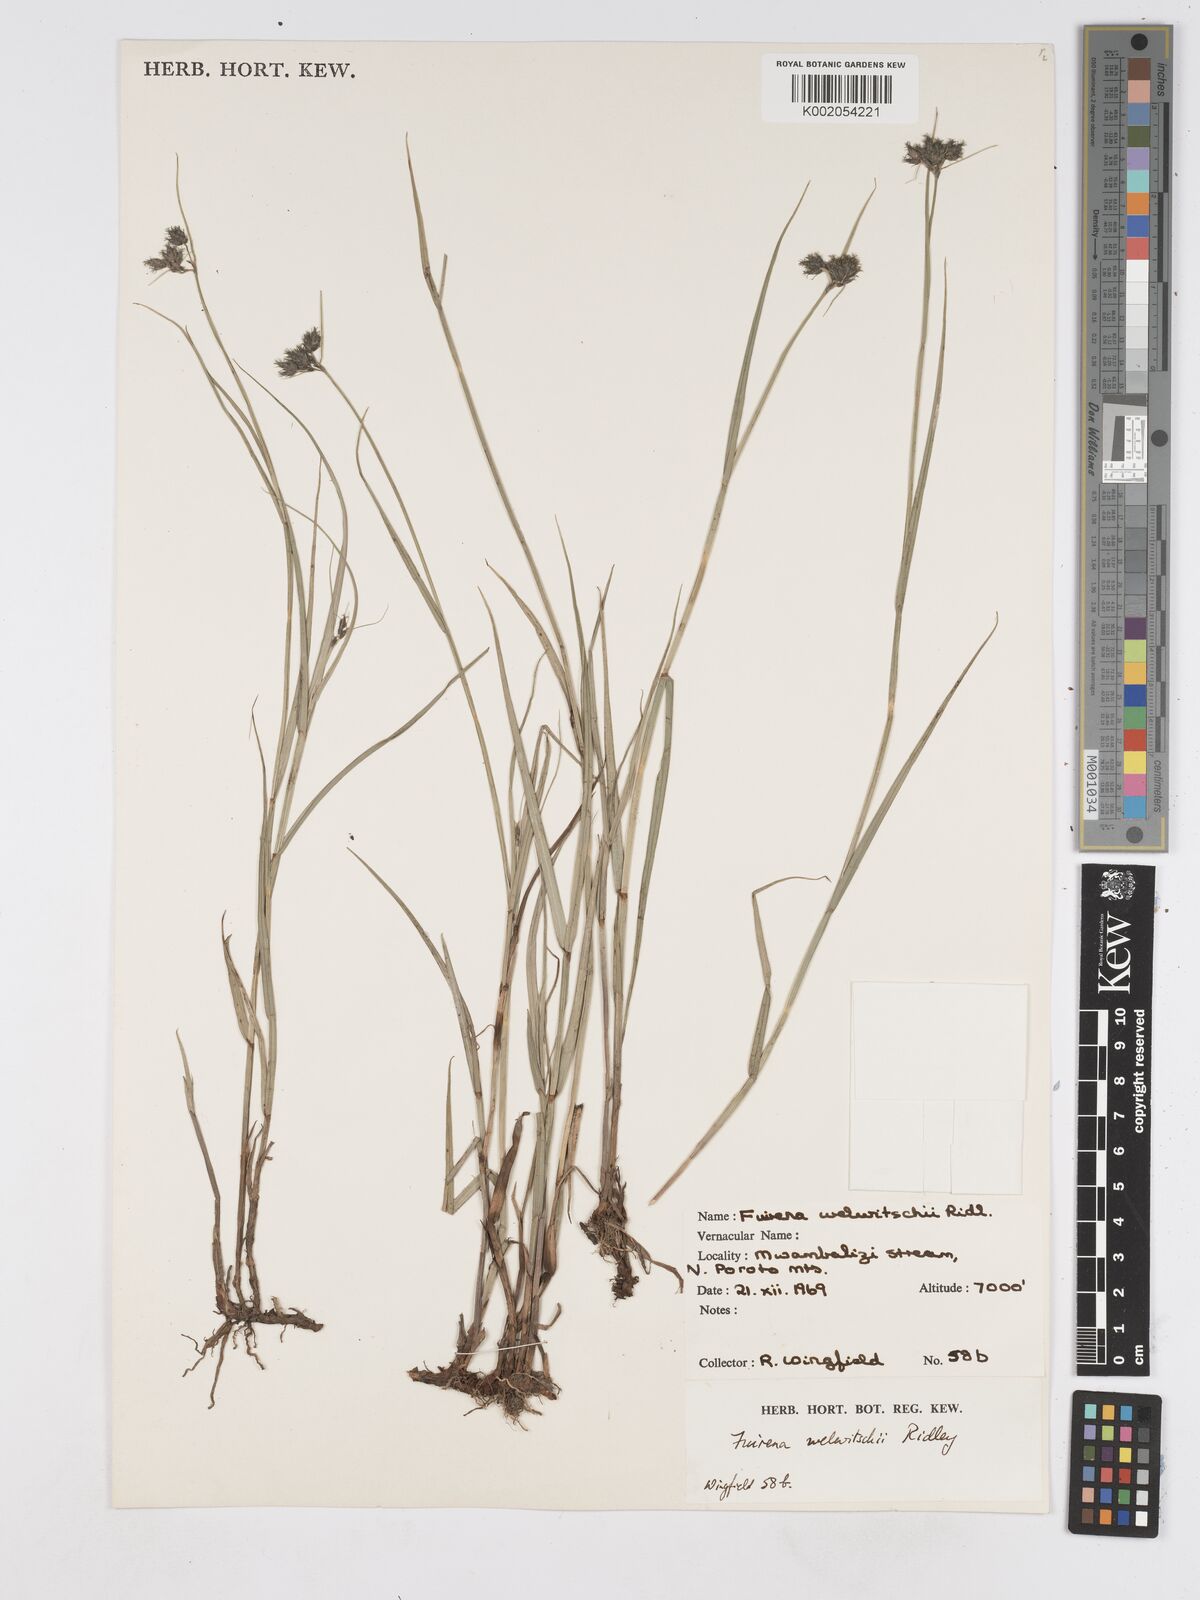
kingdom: Plantae
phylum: Tracheophyta
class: Liliopsida
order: Poales
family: Cyperaceae
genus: Fuirena
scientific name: Fuirena welwitschii
